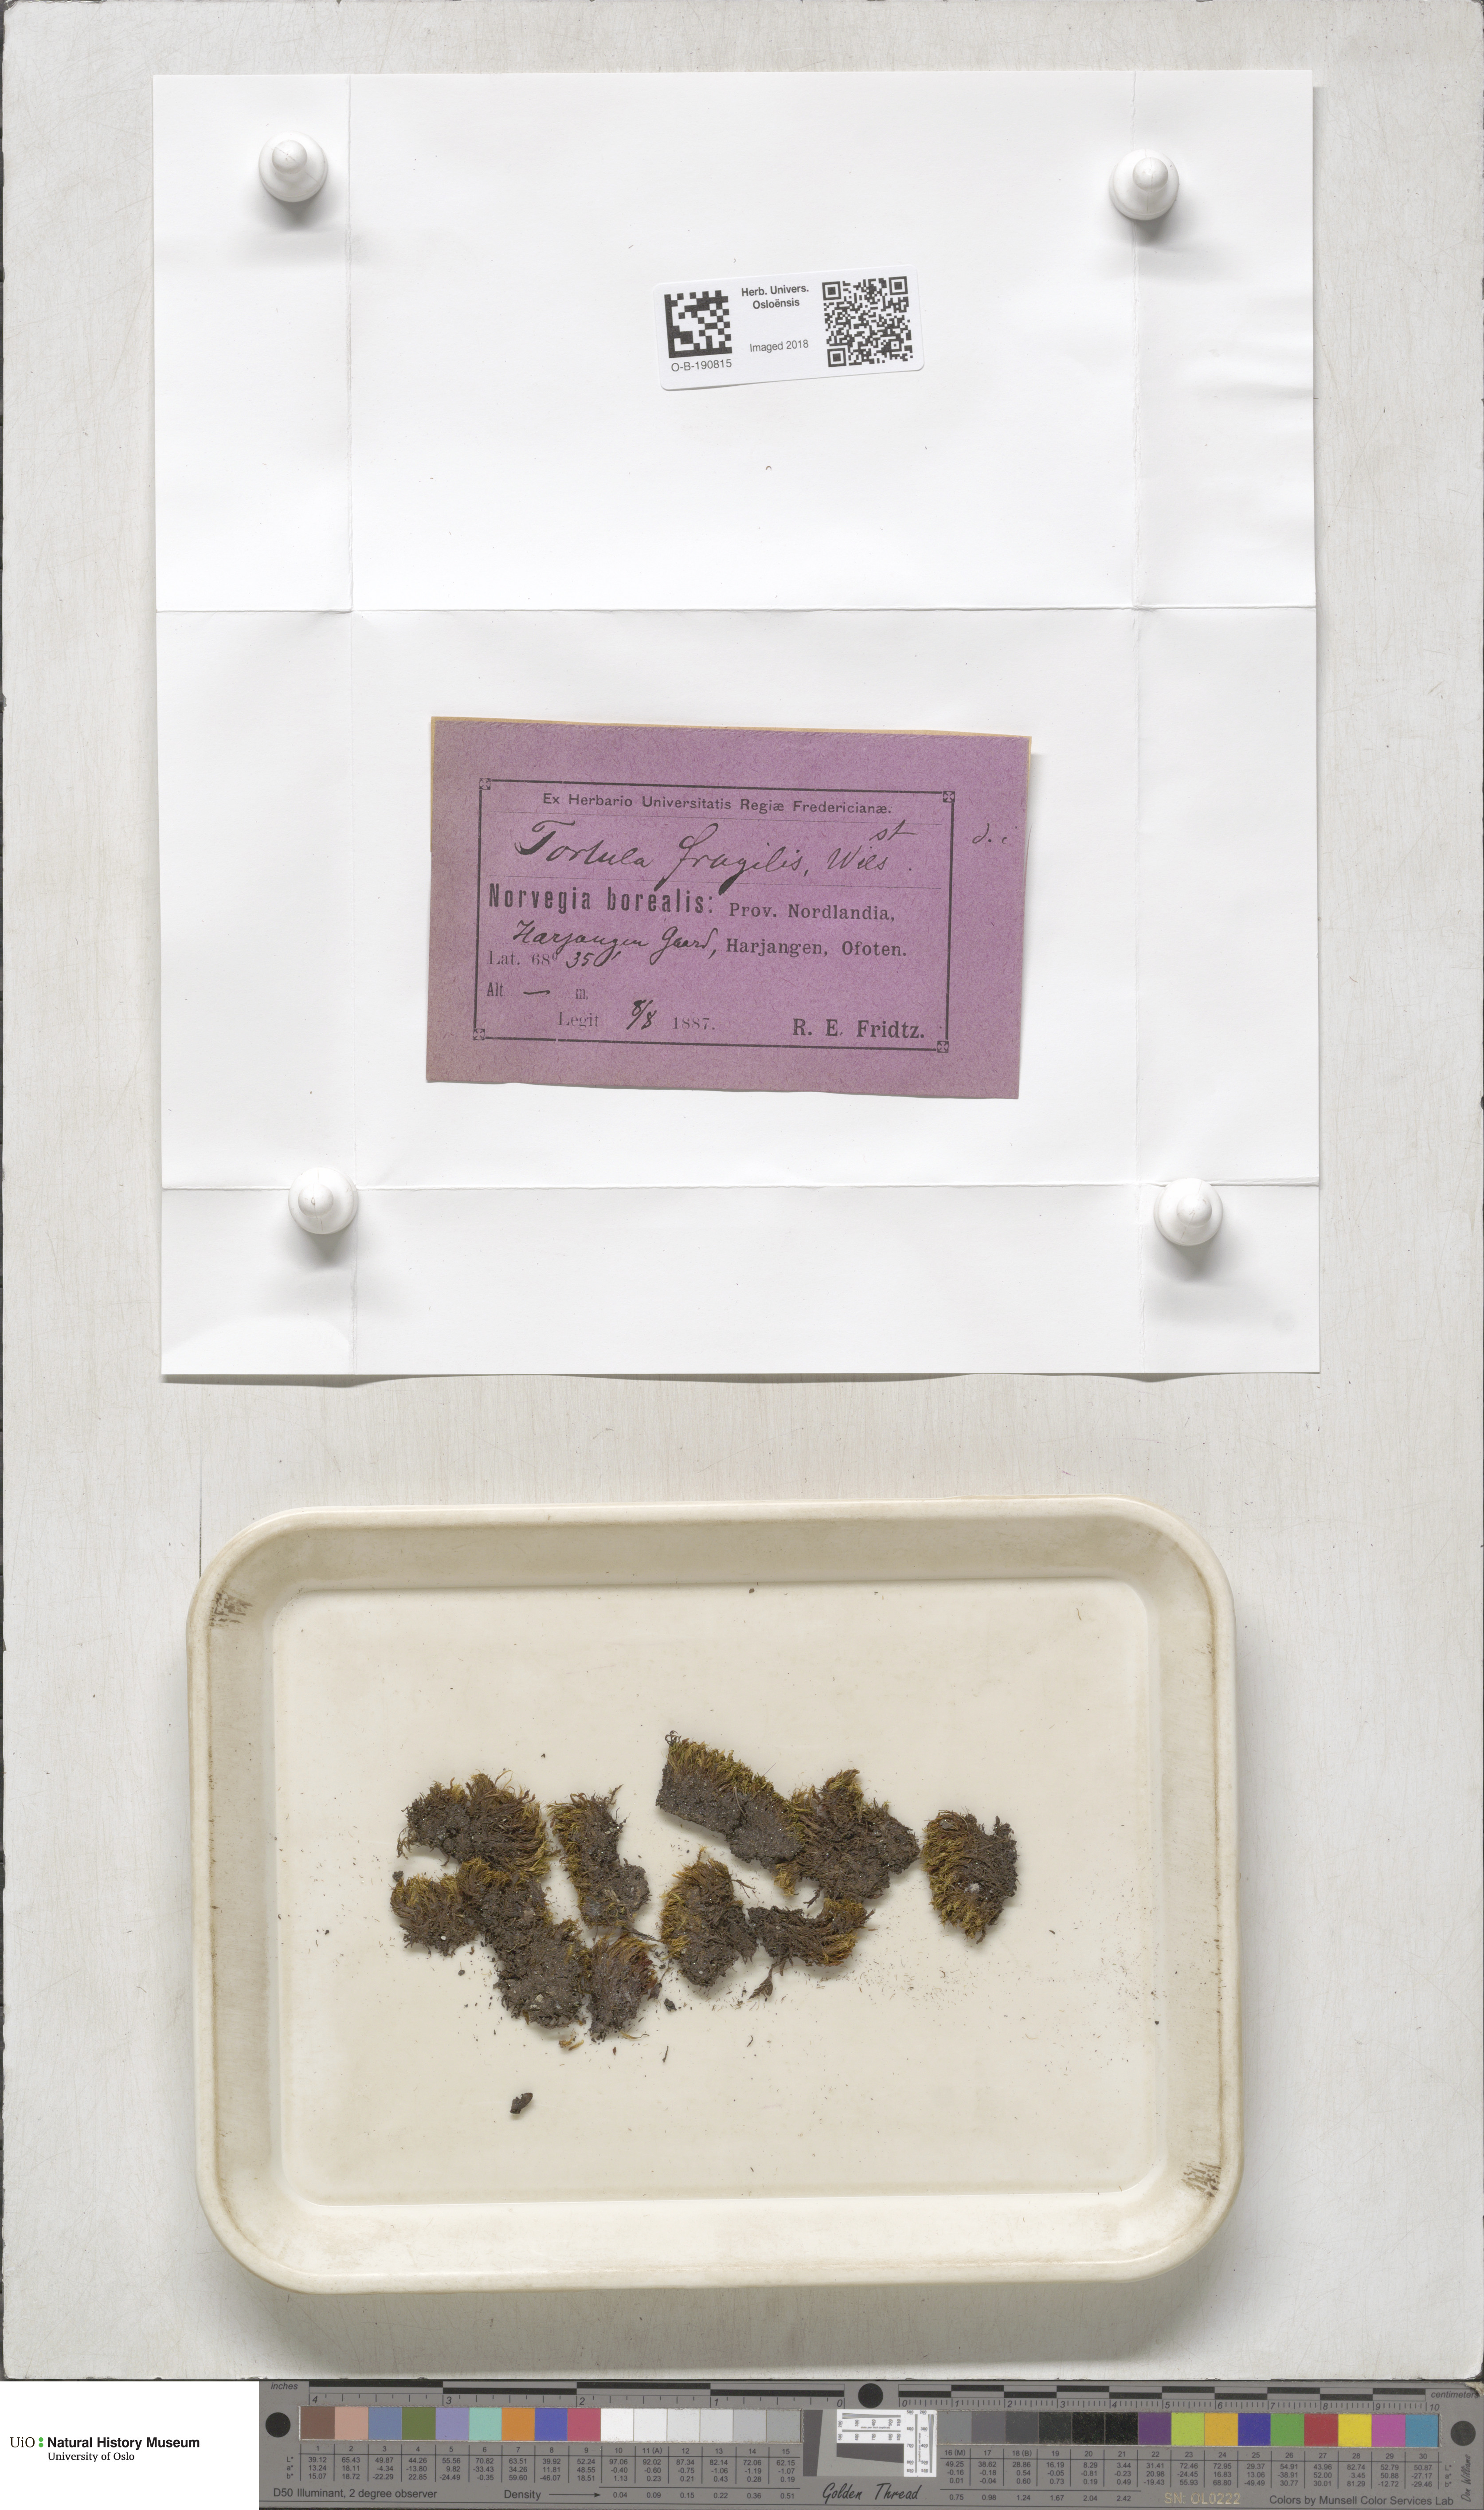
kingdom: Plantae
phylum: Bryophyta
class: Bryopsida
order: Pottiales
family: Pottiaceae
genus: Tortella
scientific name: Tortella fragilis
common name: Fragile twisted moss
